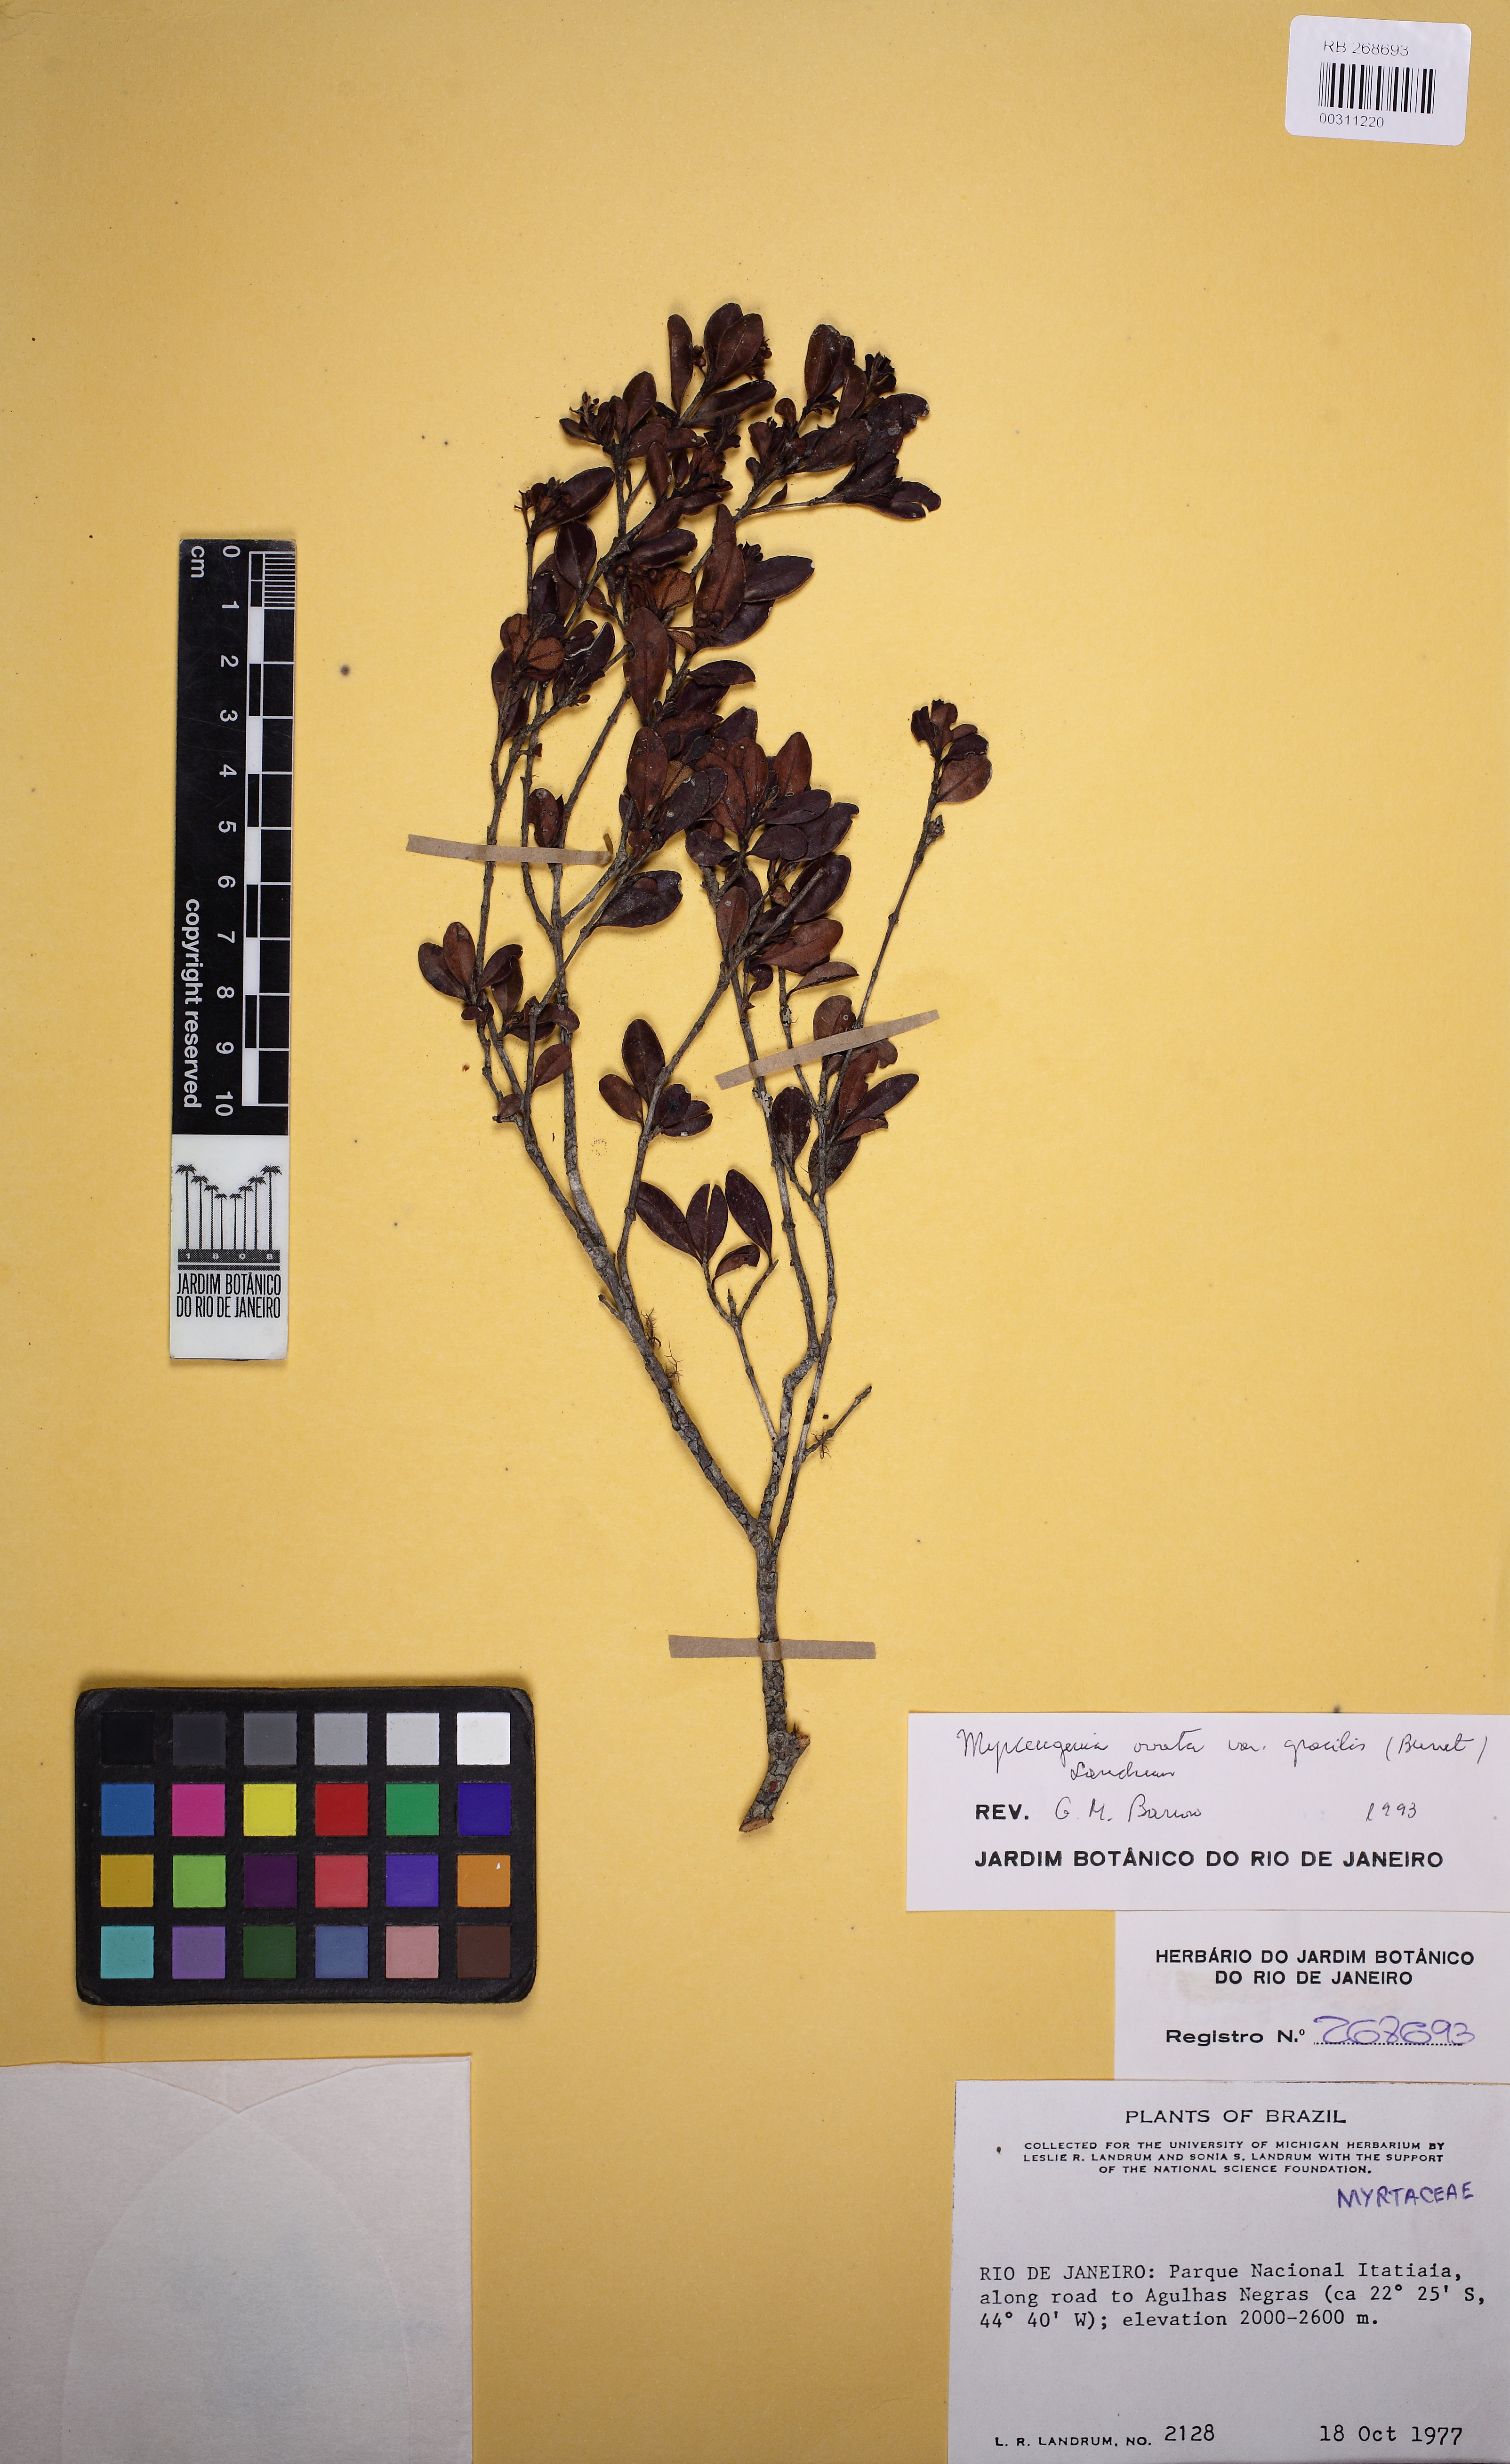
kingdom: Plantae
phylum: Tracheophyta
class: Magnoliopsida
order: Myrtales
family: Myrtaceae
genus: Myrcia
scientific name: Myrcia guianensis
